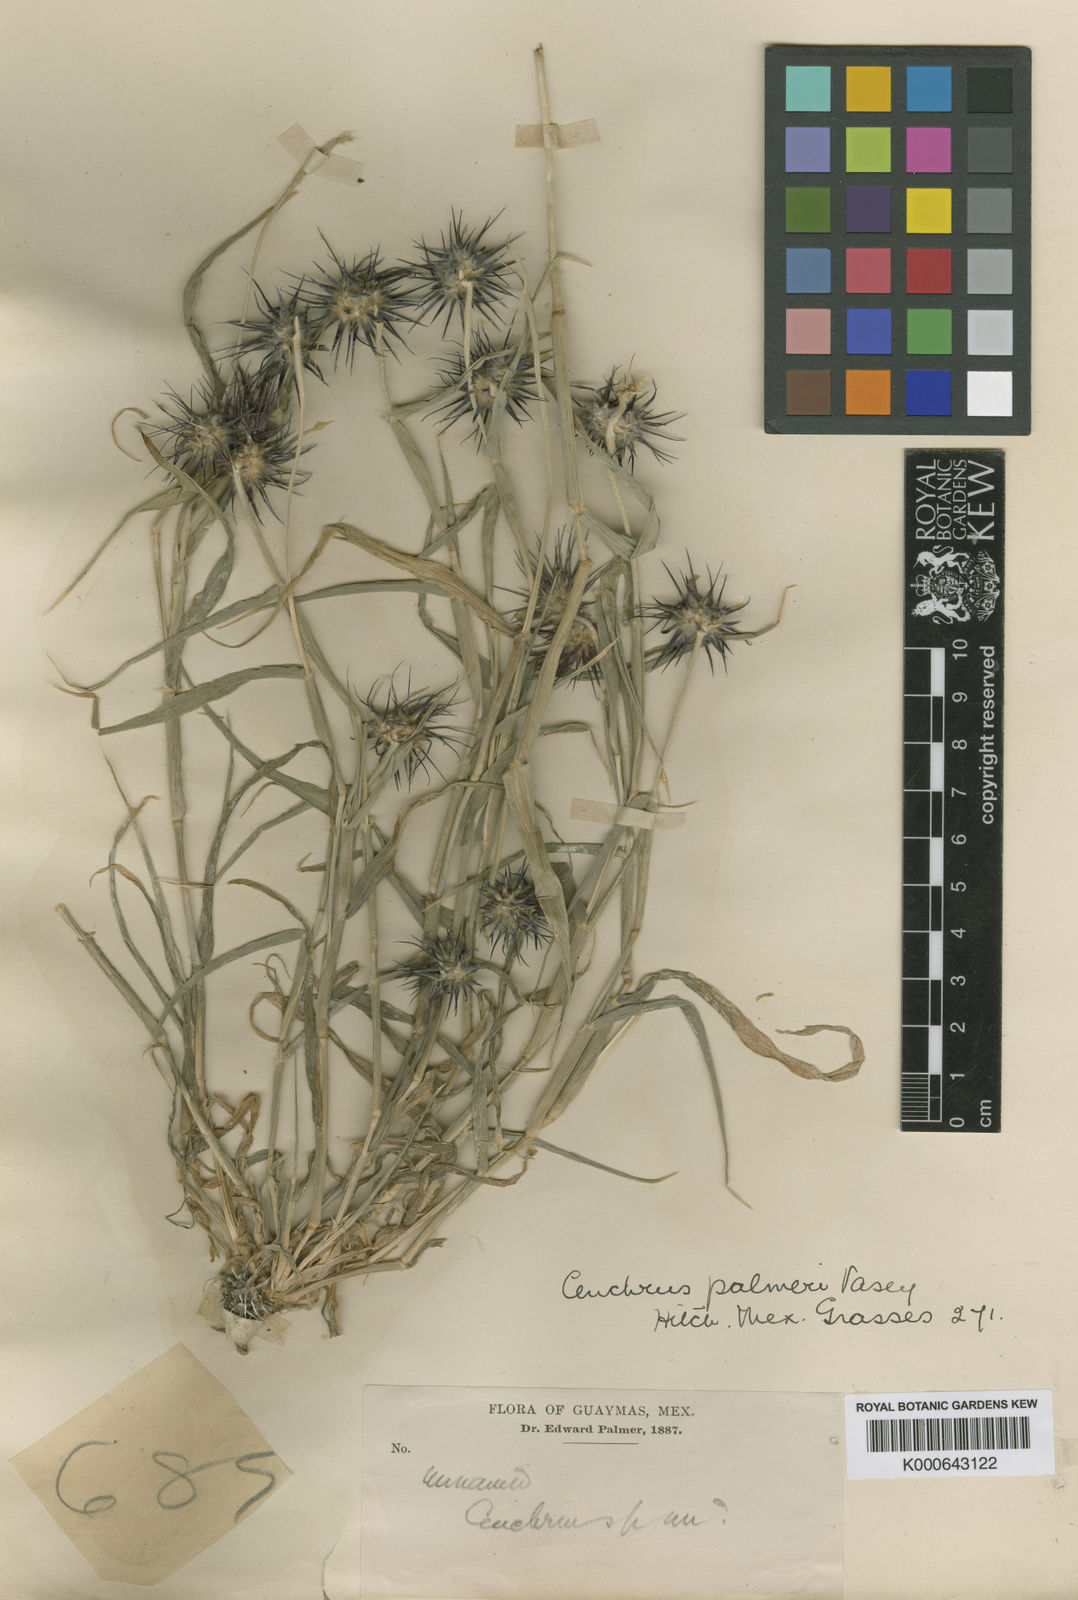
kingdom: Plantae
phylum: Tracheophyta
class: Liliopsida
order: Poales
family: Poaceae
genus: Cenchrus
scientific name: Cenchrus palmeri
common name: Giant sandbur
